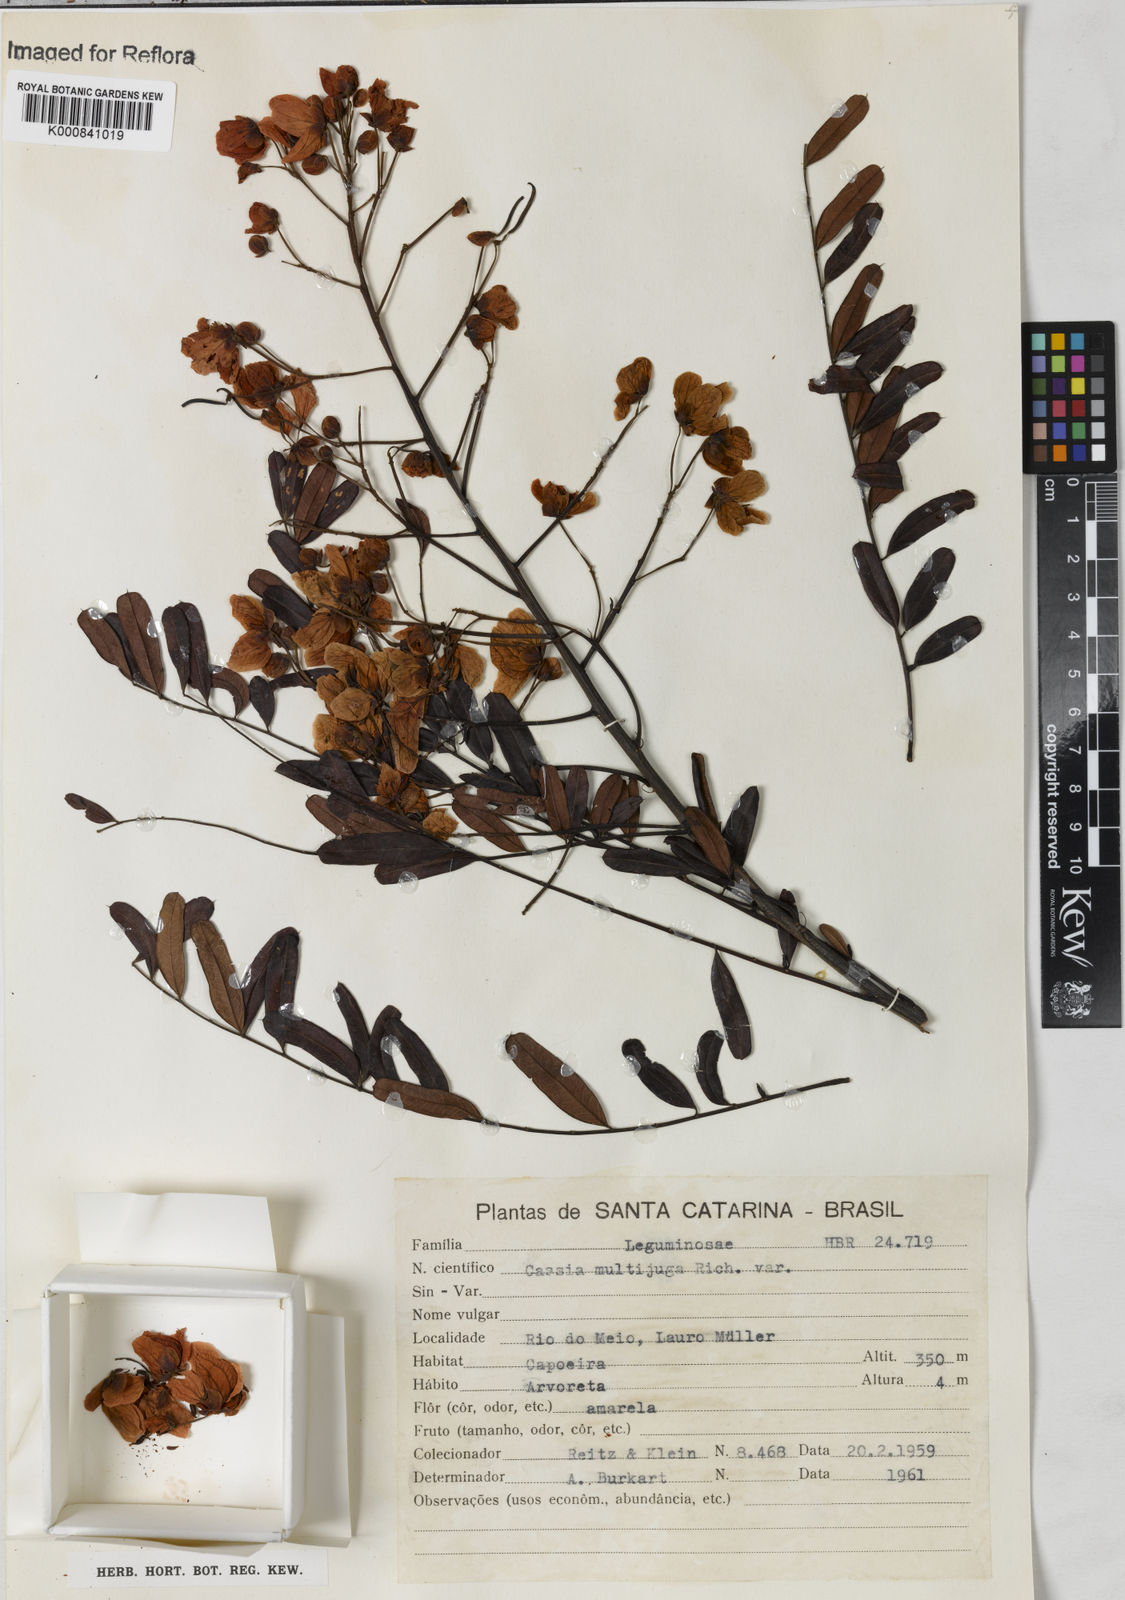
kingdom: Plantae
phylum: Tracheophyta
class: Magnoliopsida
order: Fabales
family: Fabaceae
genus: Senna
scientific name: Senna multijuga
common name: False sicklepod
